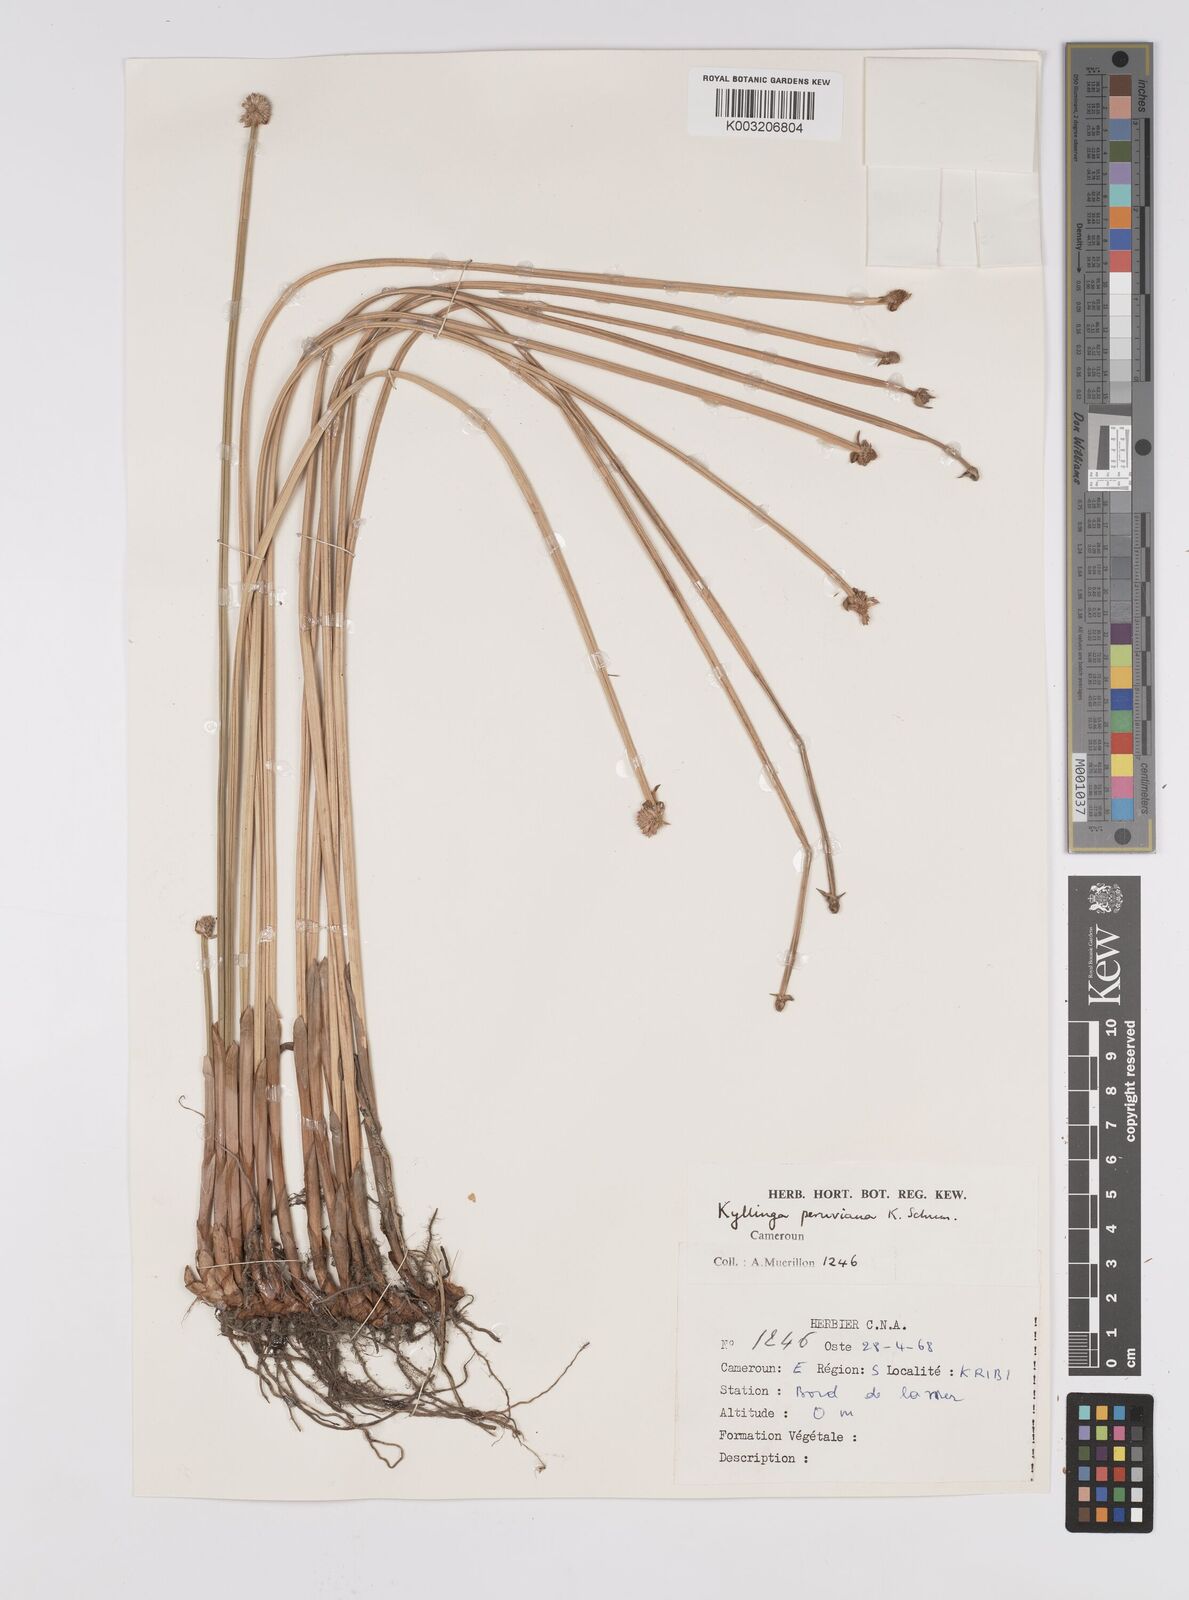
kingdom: Plantae
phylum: Tracheophyta
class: Liliopsida
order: Poales
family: Cyperaceae
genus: Cyperus
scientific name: Cyperus
